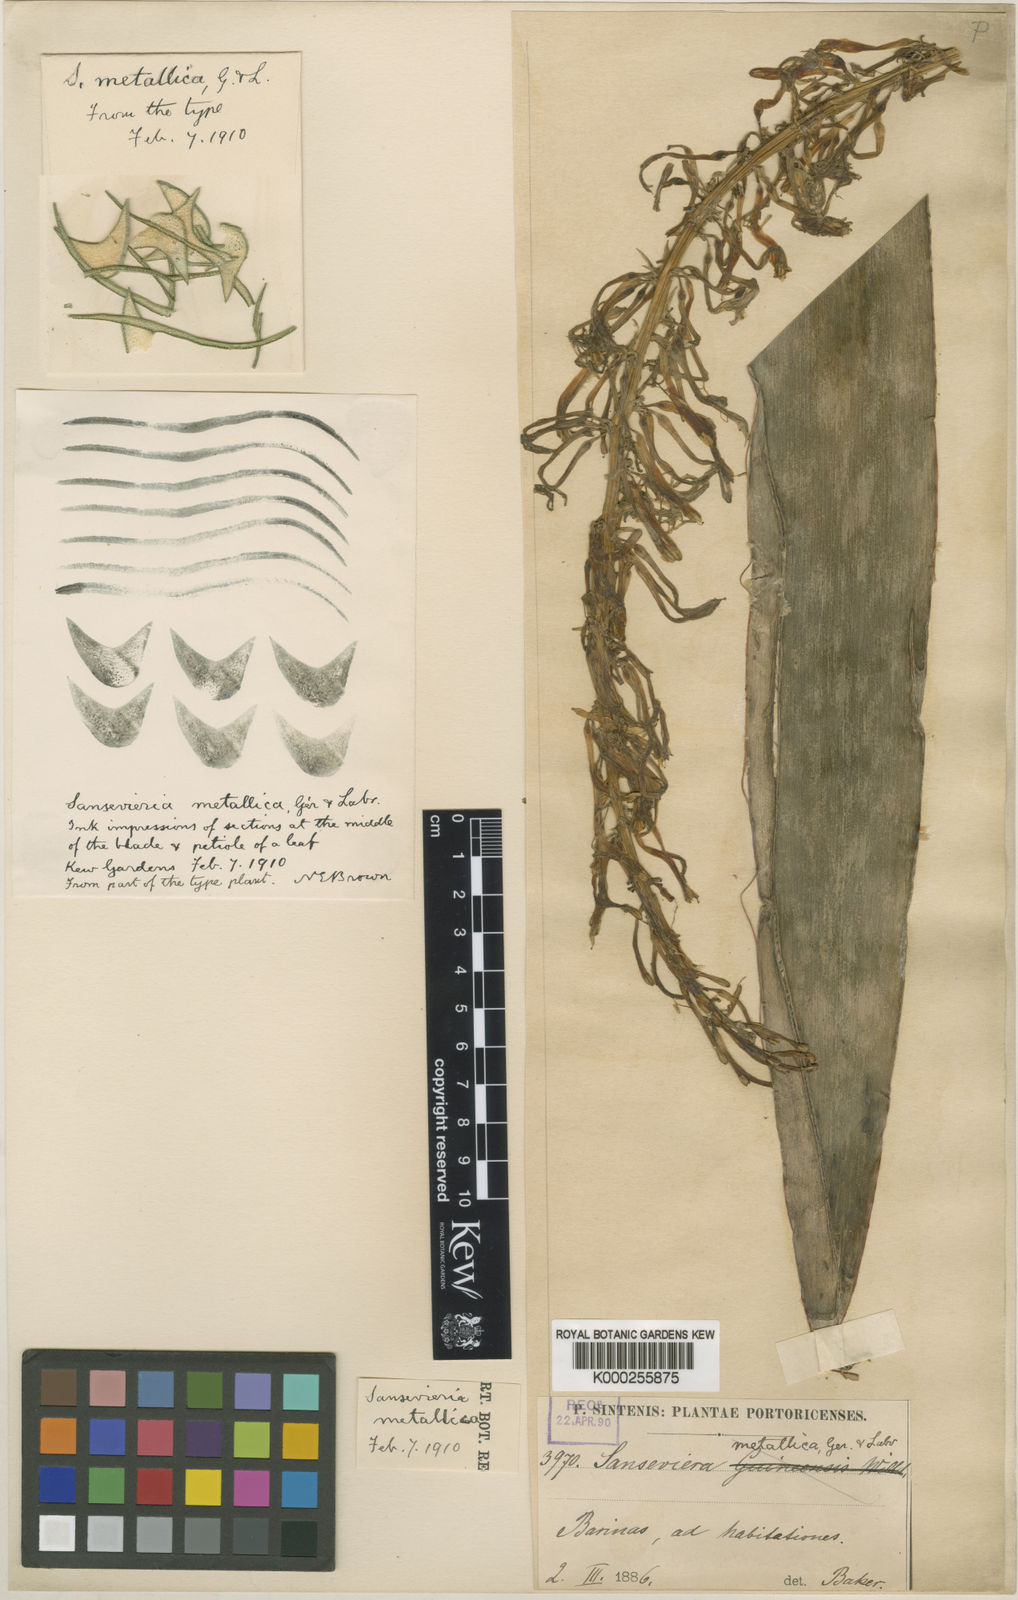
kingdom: Plantae
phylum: Tracheophyta
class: Liliopsida
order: Asparagales
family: Asparagaceae
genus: Dracaena
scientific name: Dracaena zebra
